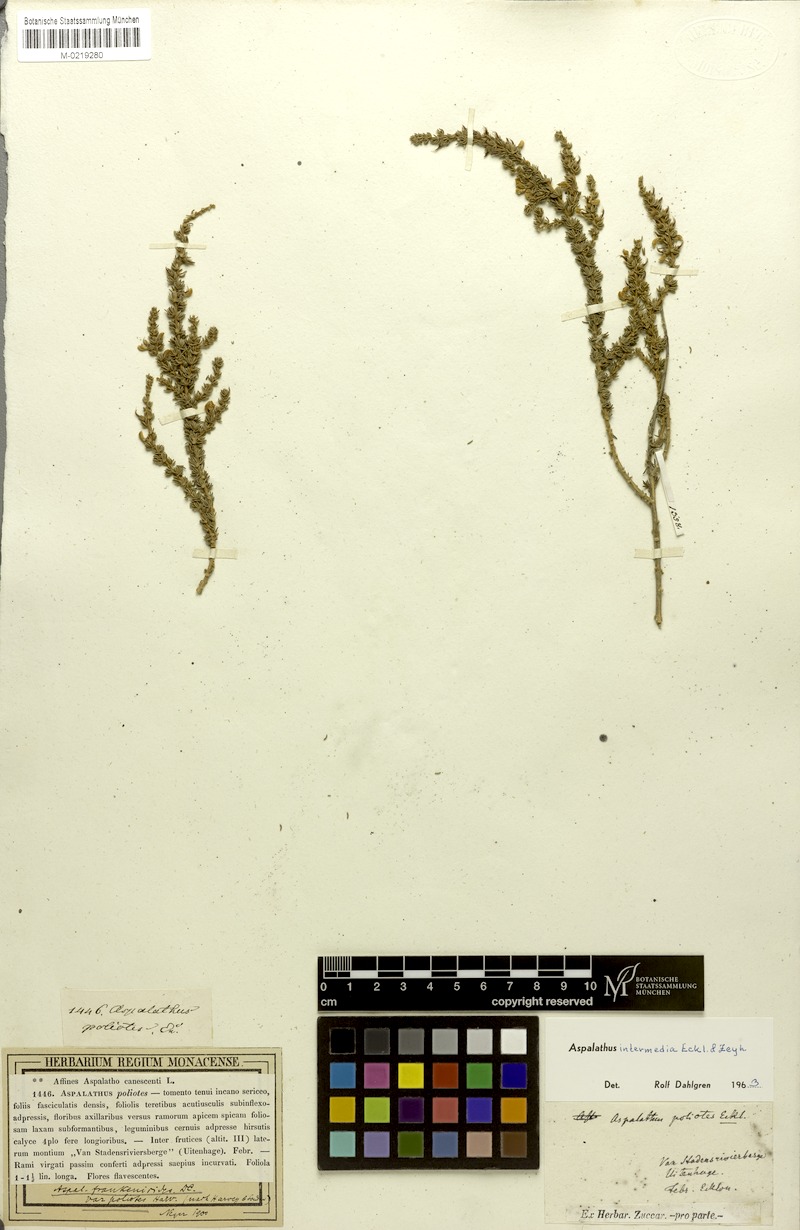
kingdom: Plantae
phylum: Tracheophyta
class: Magnoliopsida
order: Fabales
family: Fabaceae
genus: Aspalathus
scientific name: Aspalathus intermedia
